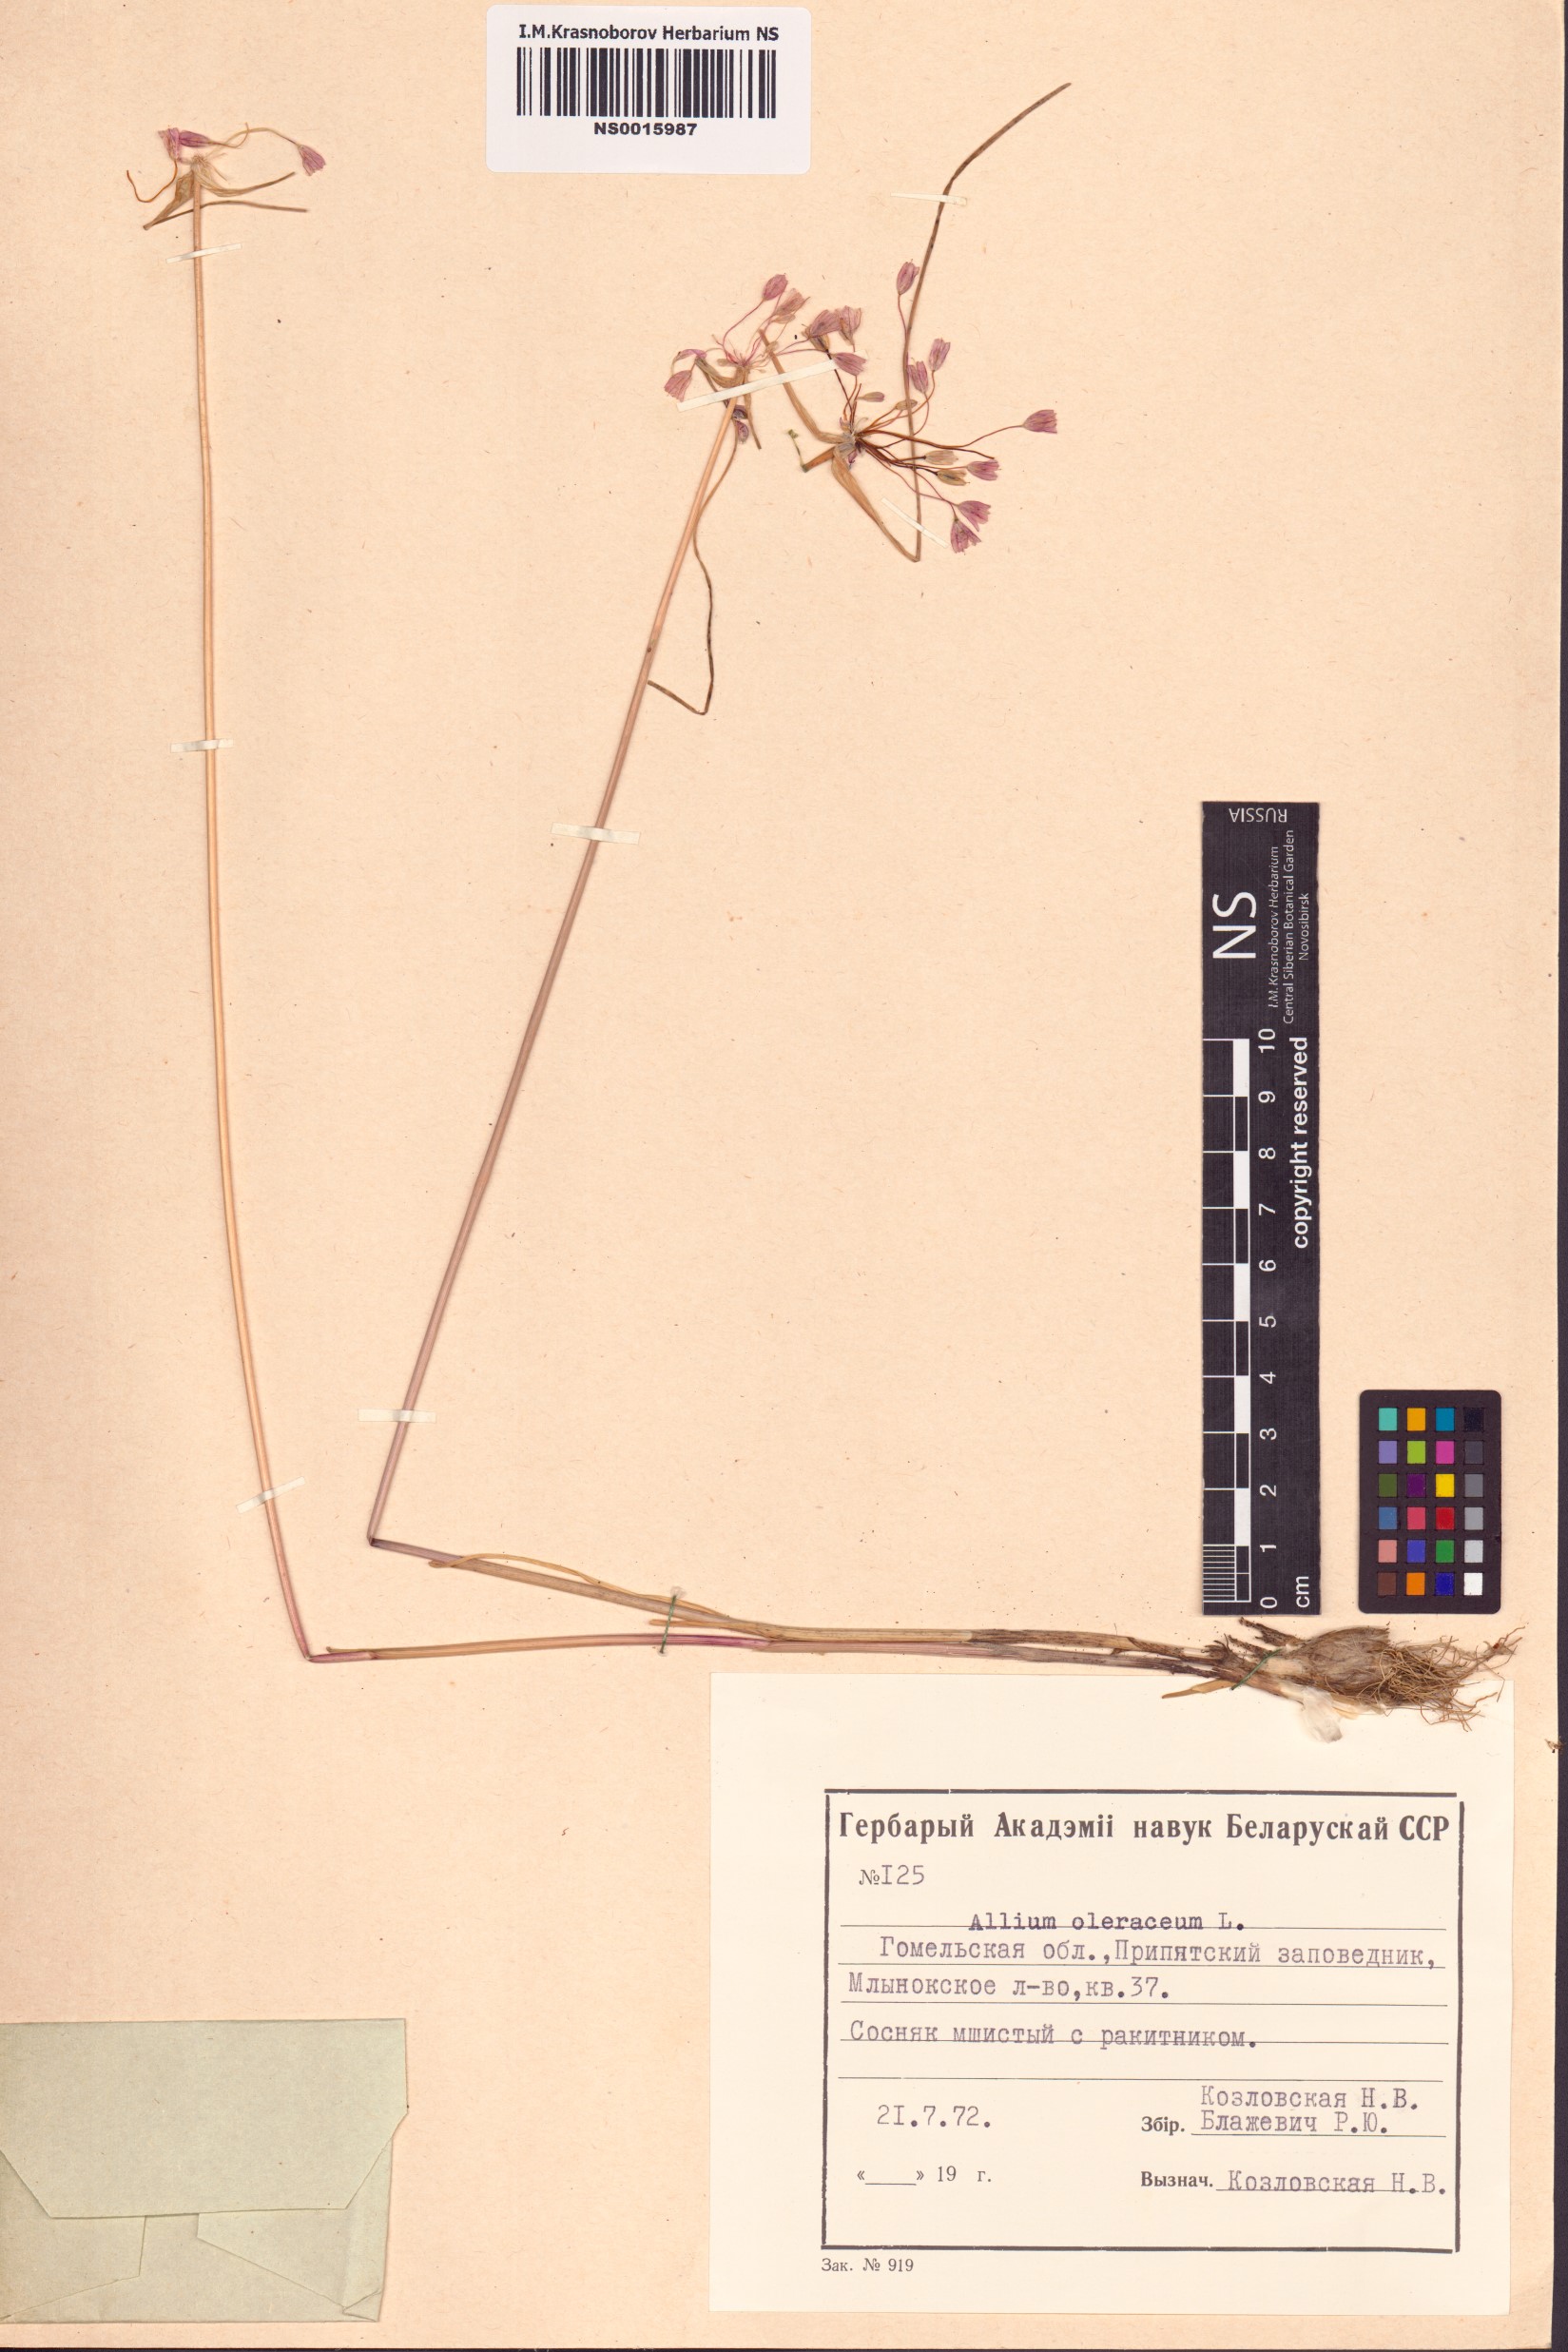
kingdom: Plantae
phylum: Tracheophyta
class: Liliopsida
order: Asparagales
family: Amaryllidaceae
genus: Allium
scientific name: Allium oleraceum
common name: Field garlic
